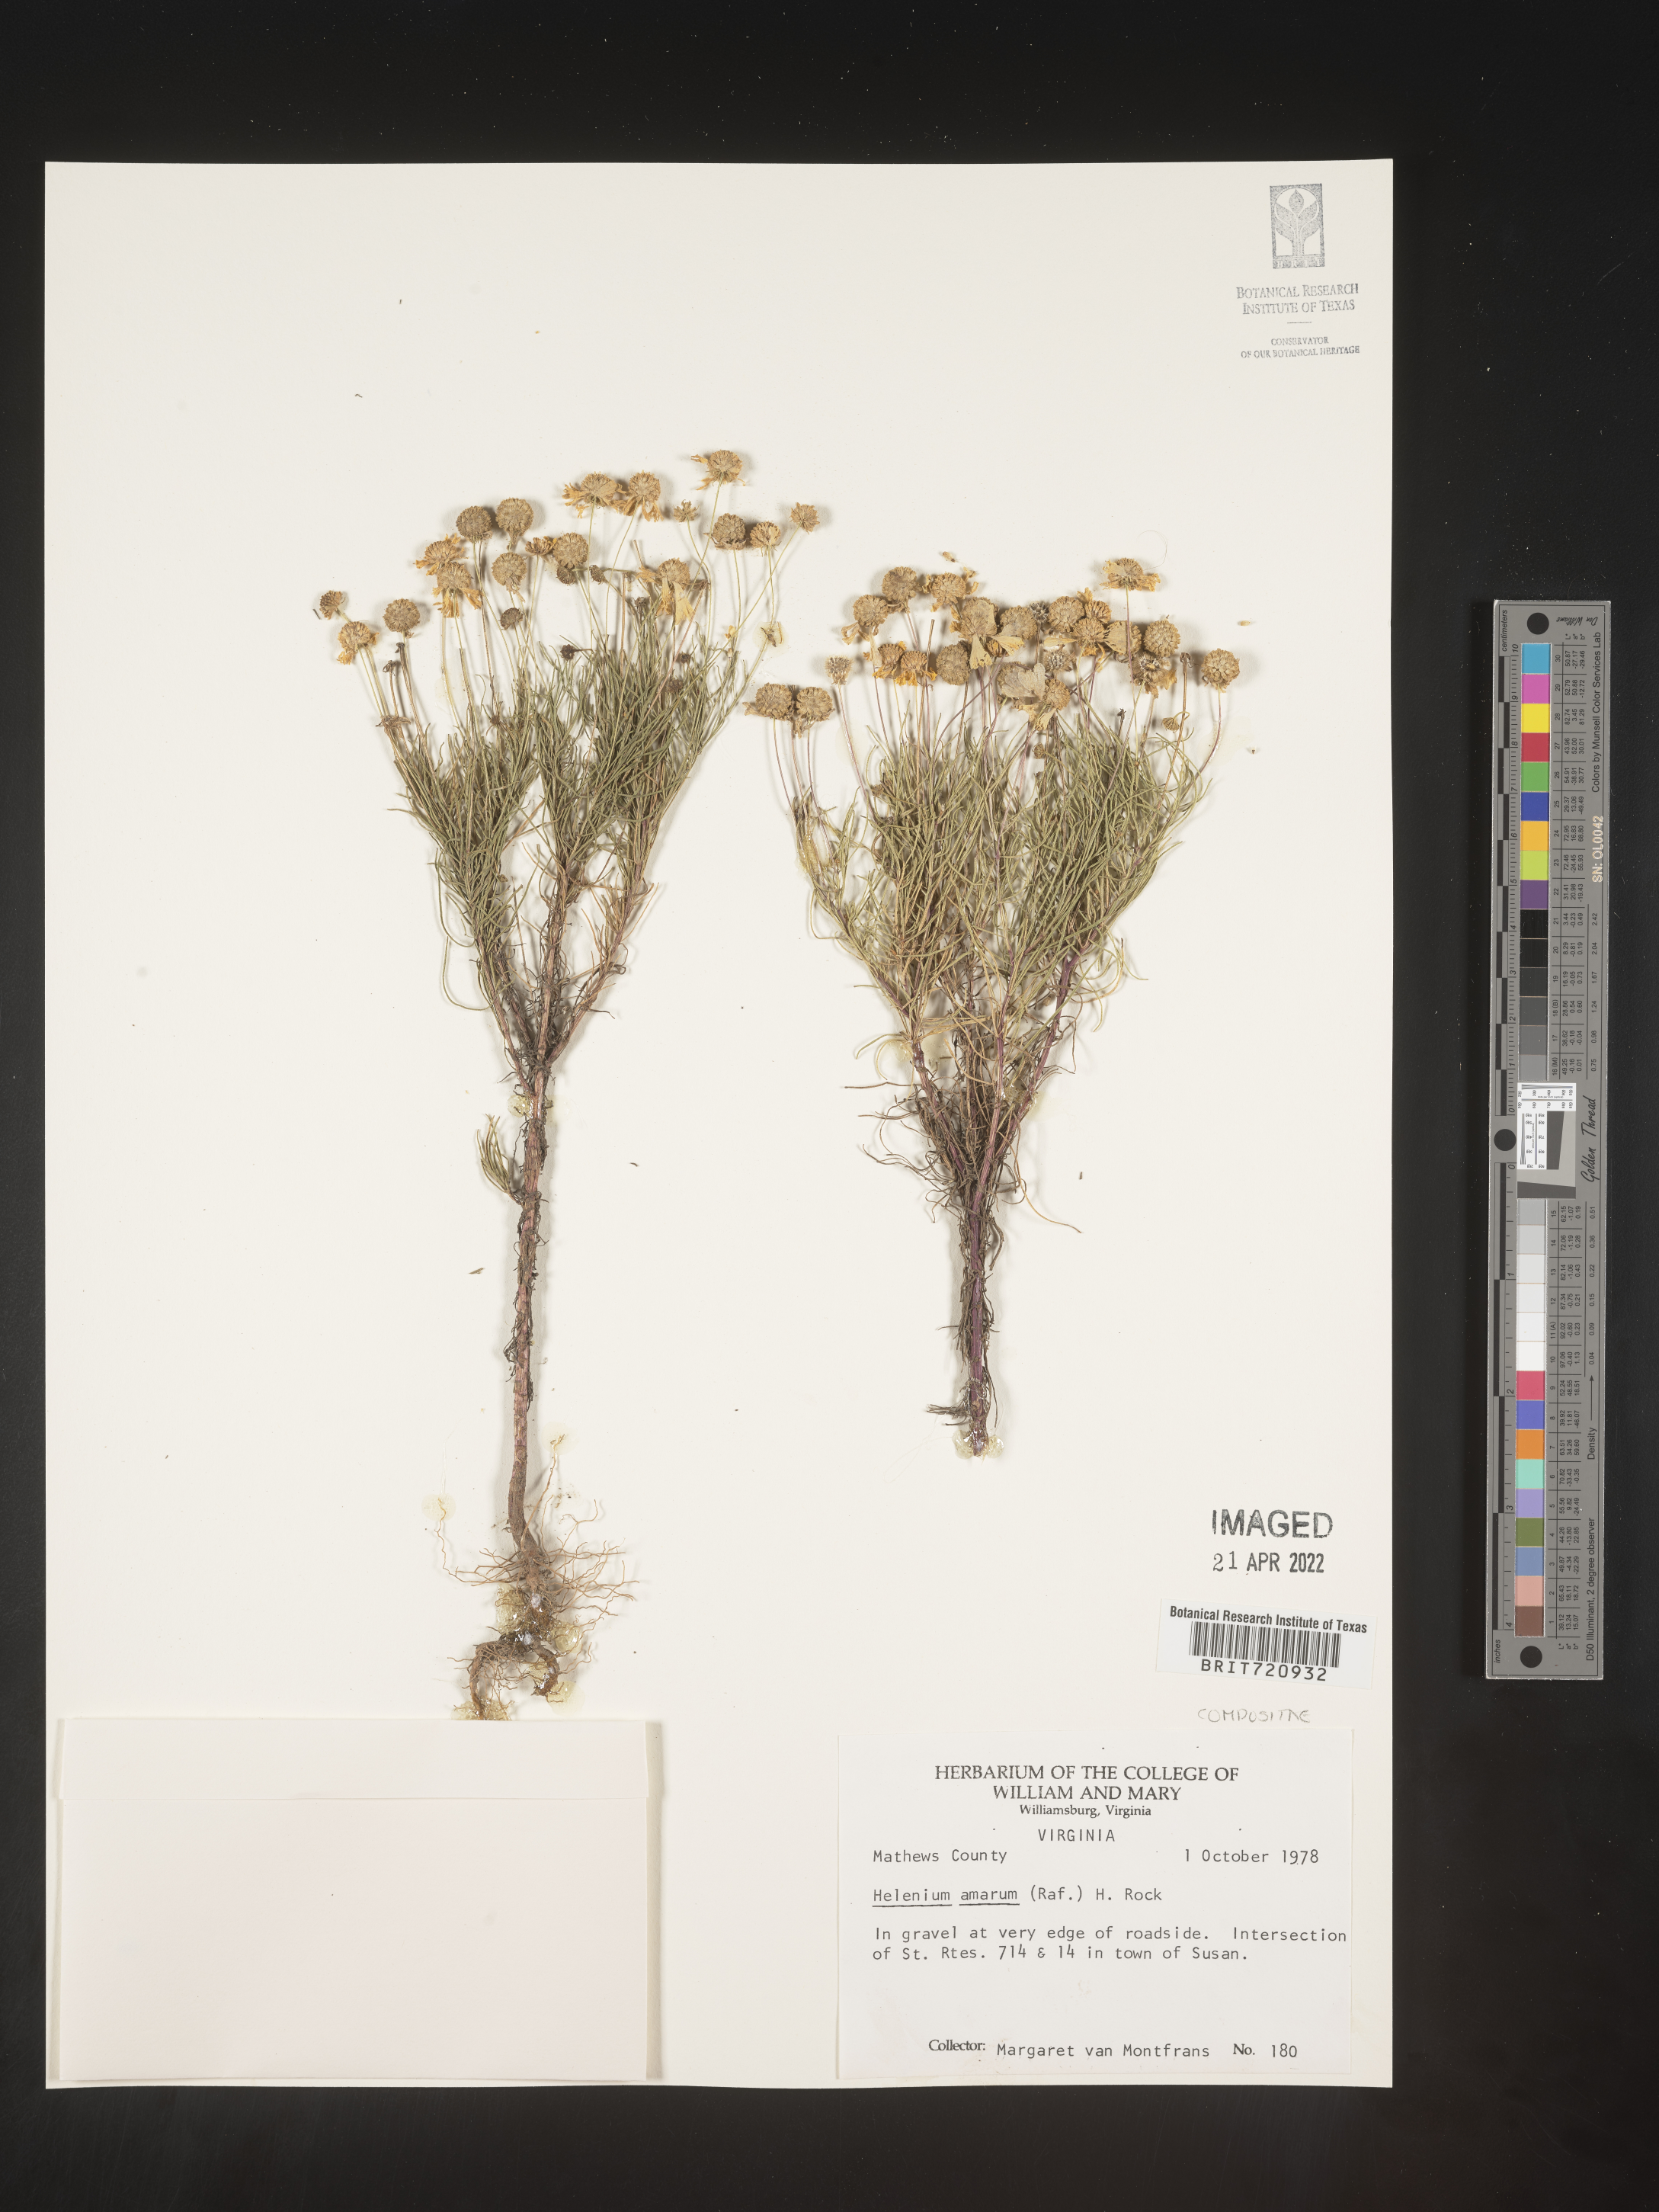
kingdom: Plantae
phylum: Tracheophyta
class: Magnoliopsida
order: Asterales
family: Asteraceae
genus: Helenium
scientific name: Helenium amarum
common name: Bitter sneezeweed
